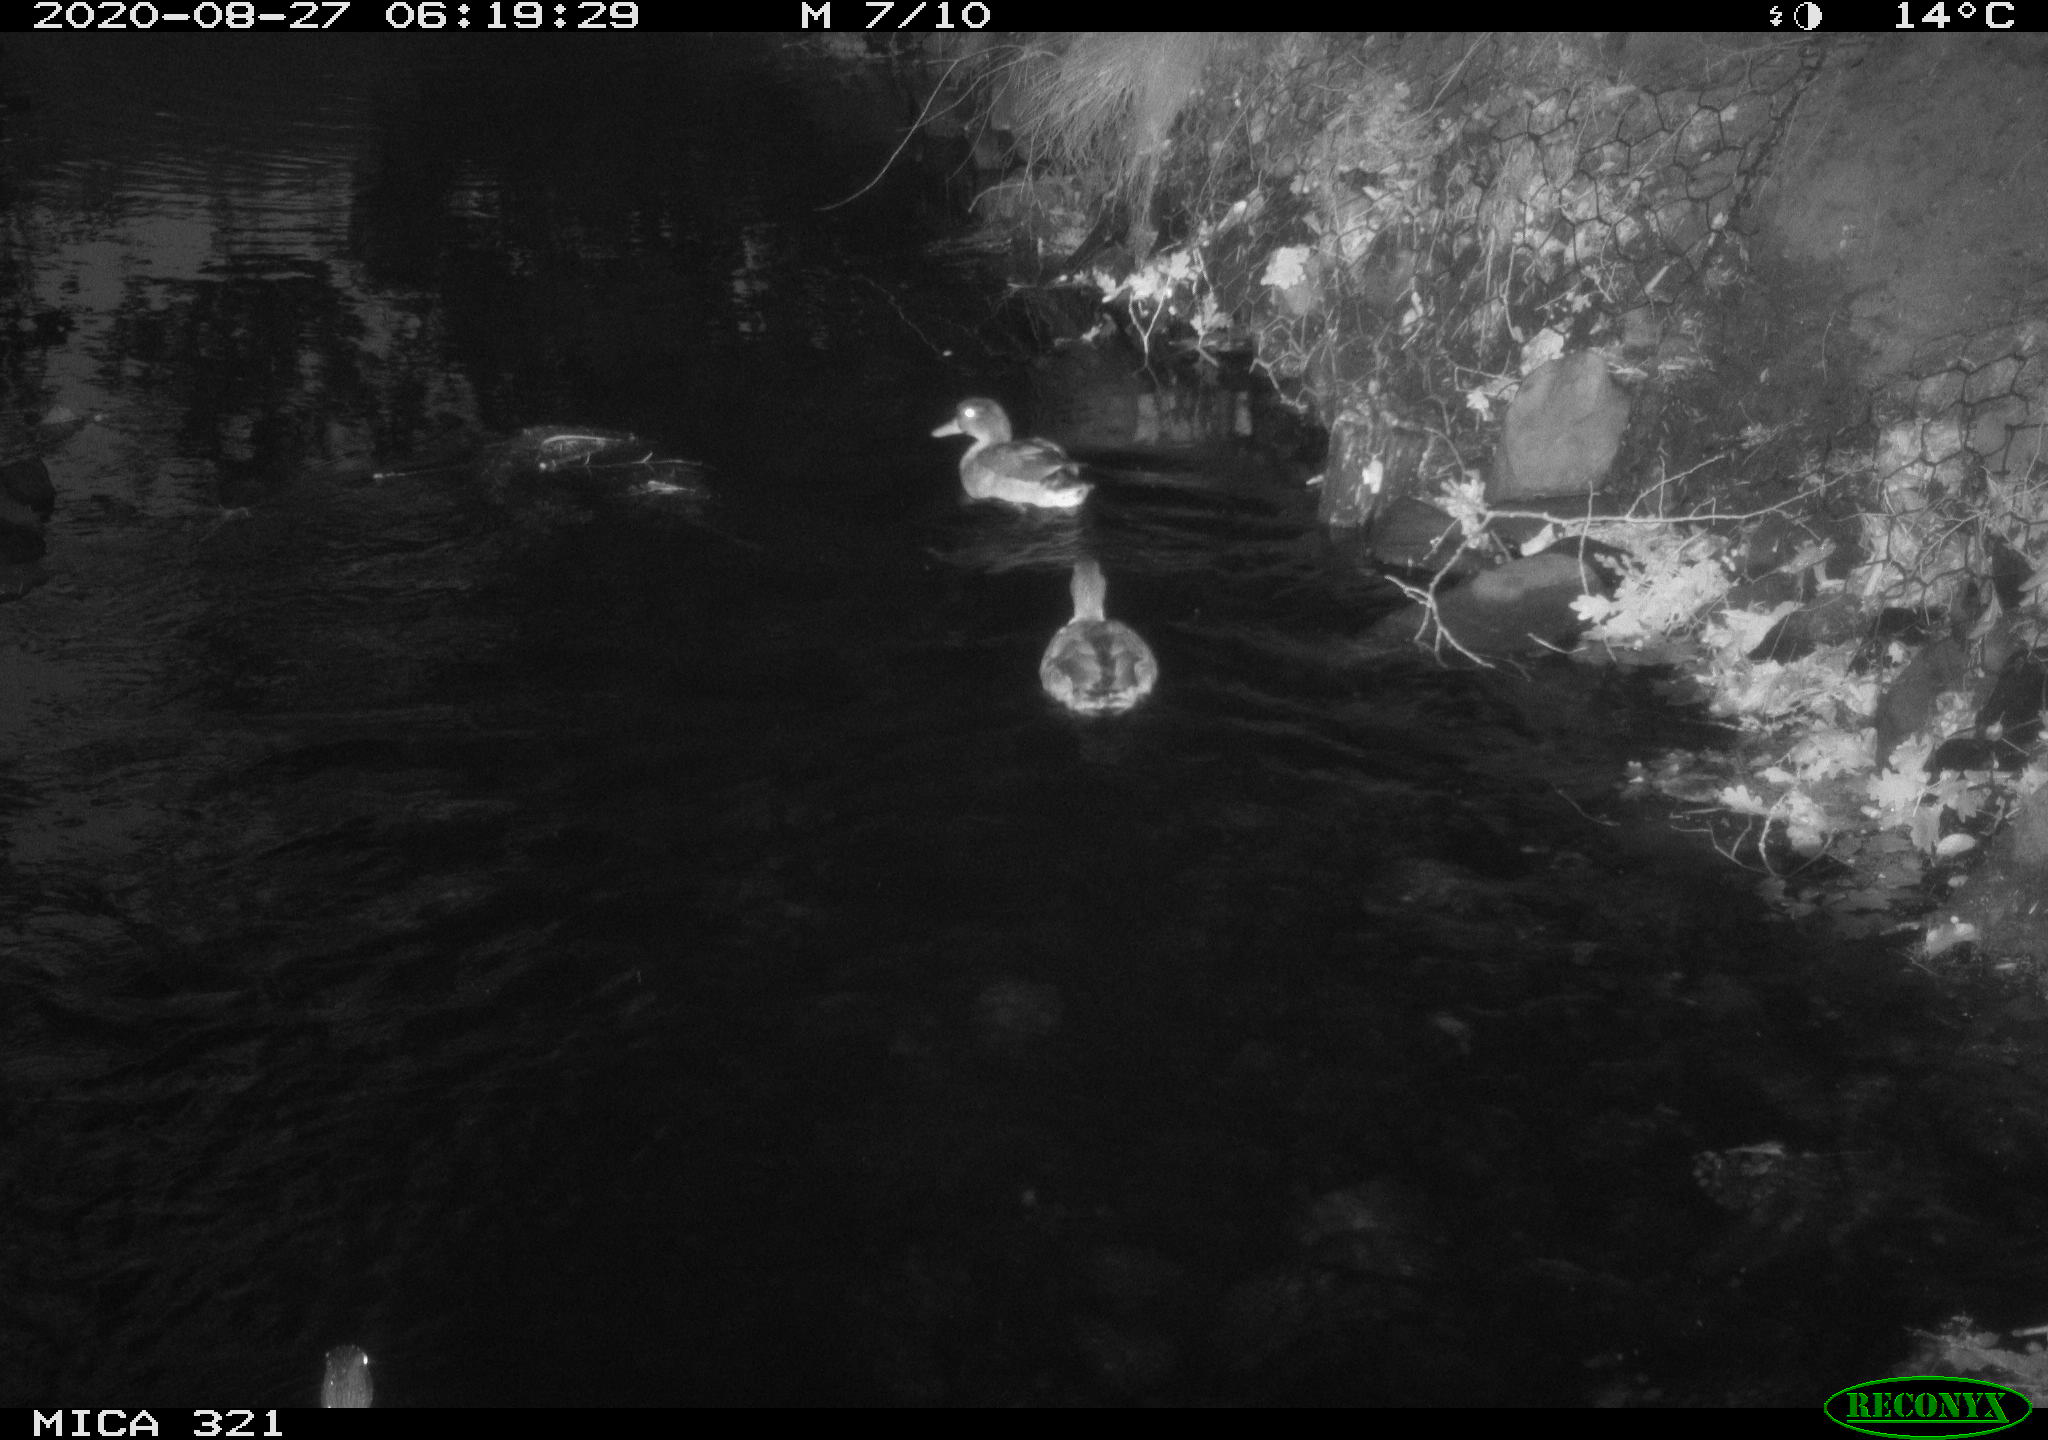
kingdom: Animalia
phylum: Chordata
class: Aves
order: Anseriformes
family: Anatidae
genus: Anas
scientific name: Anas platyrhynchos
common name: Mallard
